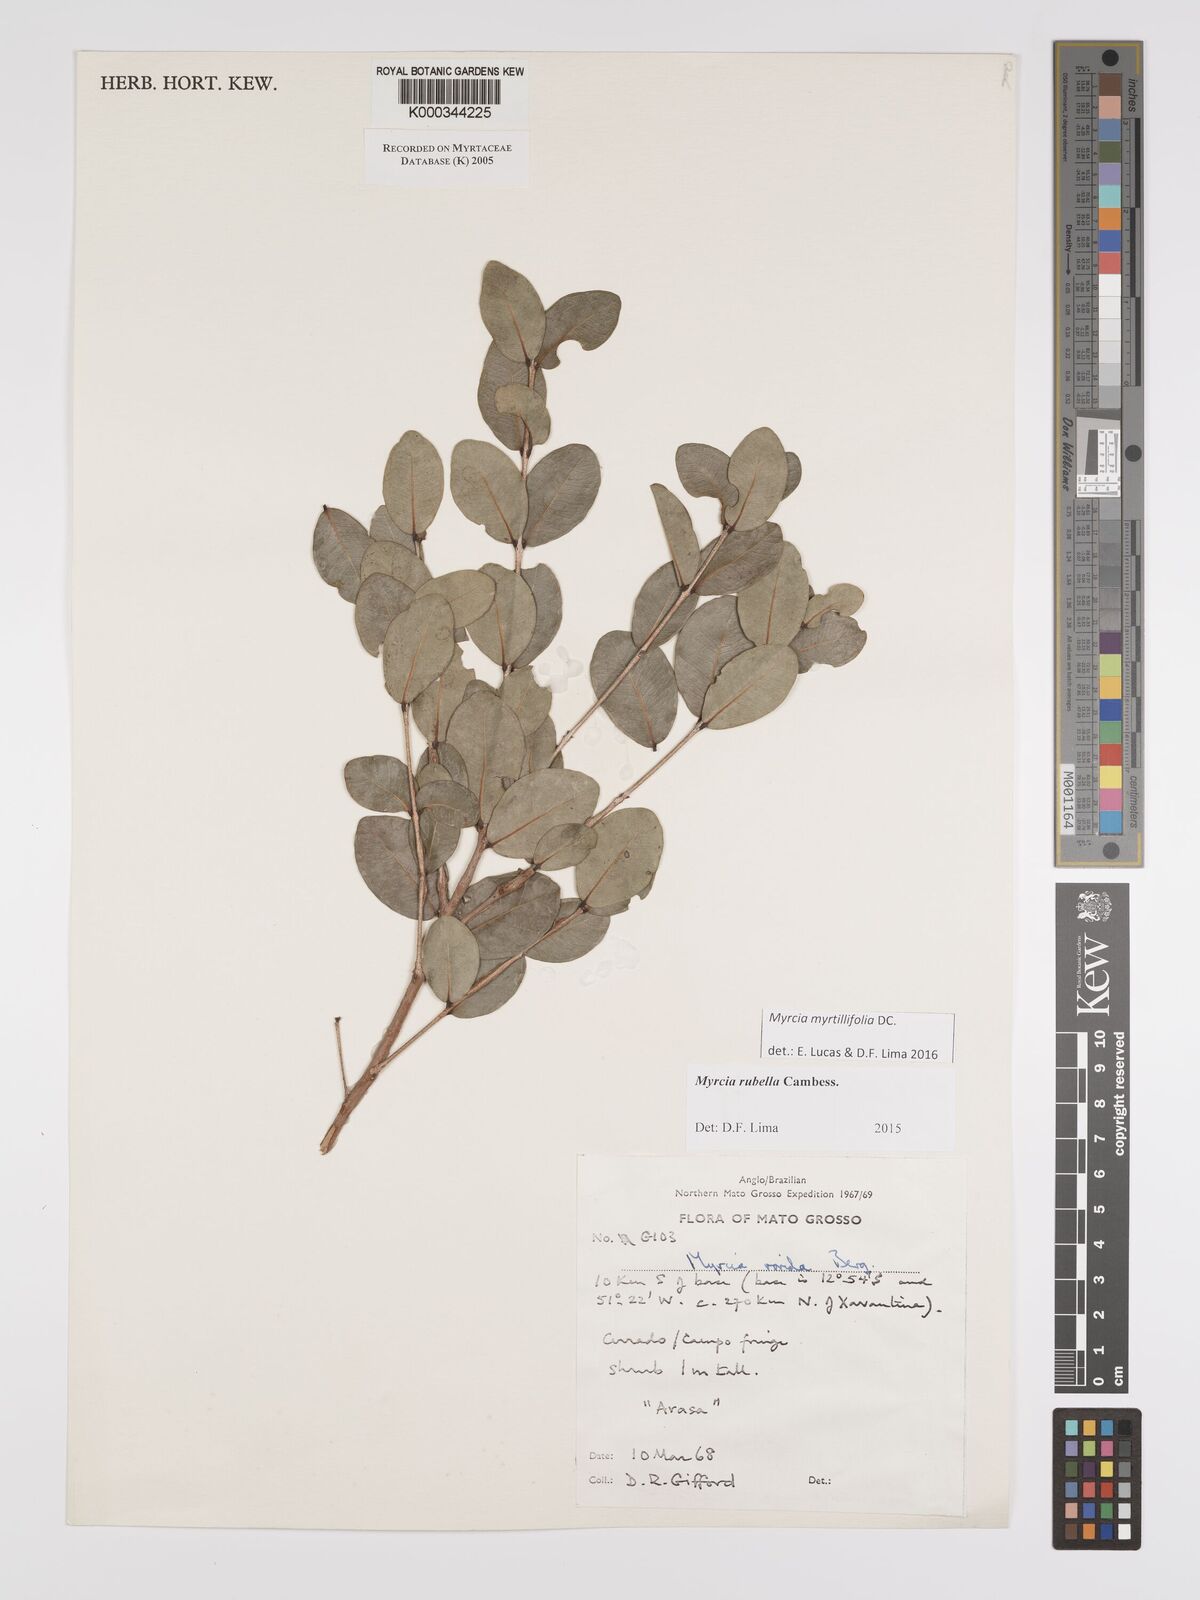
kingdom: Plantae
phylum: Tracheophyta
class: Magnoliopsida
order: Myrtales
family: Myrtaceae
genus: Myrcia
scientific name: Myrcia guianensis
